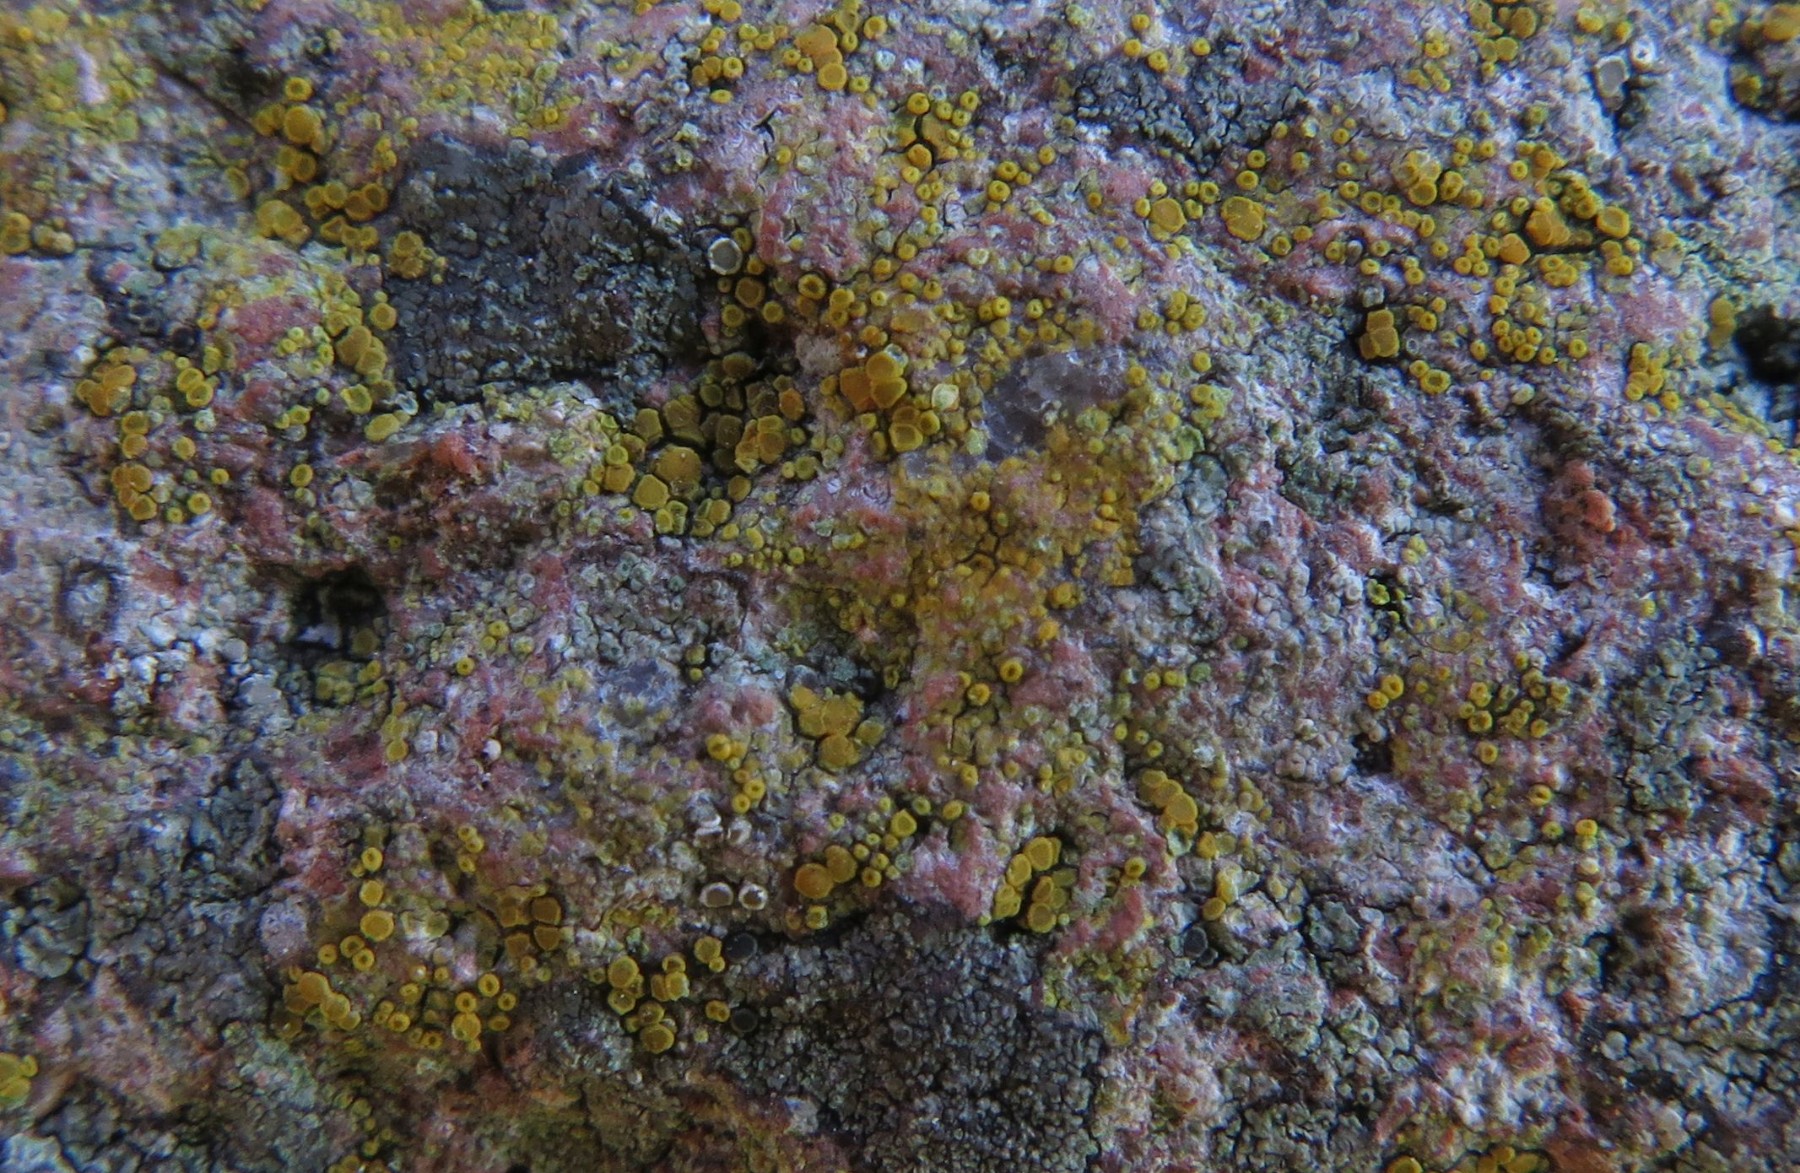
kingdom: Fungi
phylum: Ascomycota
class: Lecanoromycetes
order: Teloschistales
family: Teloschistaceae
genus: Flavoplaca
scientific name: Flavoplaca oasis
